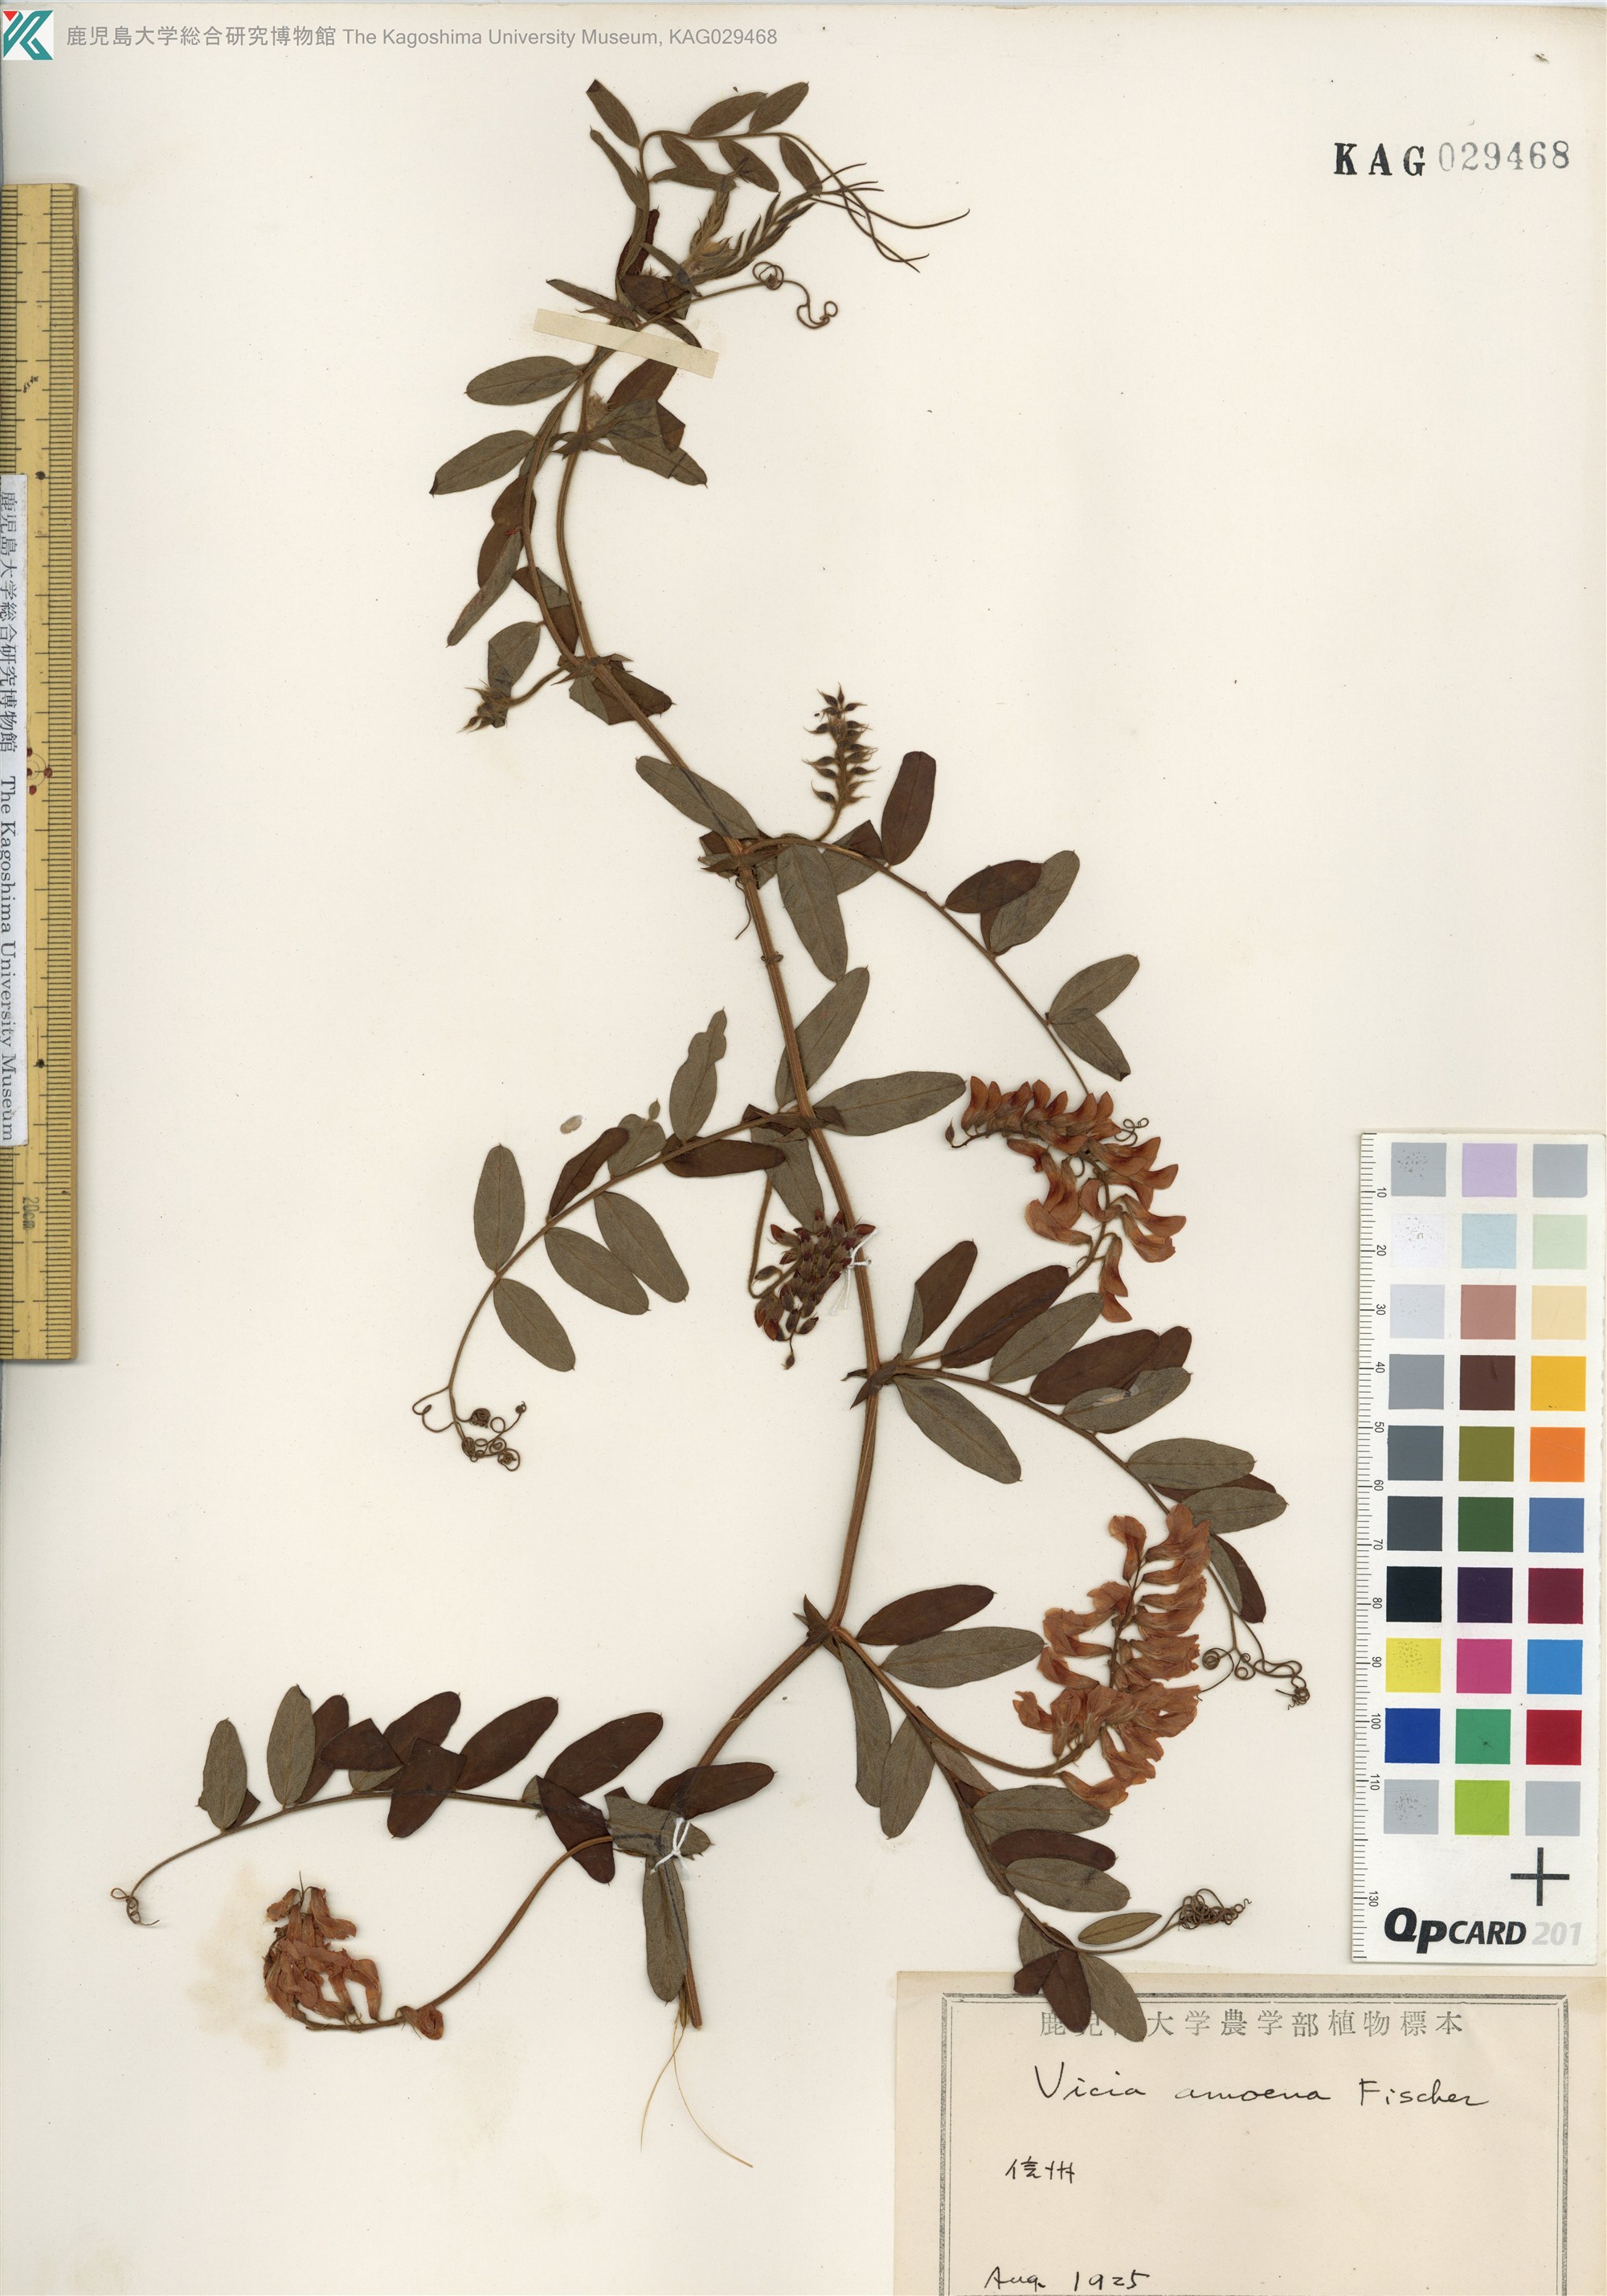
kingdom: Plantae
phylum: Tracheophyta
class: Magnoliopsida
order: Fabales
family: Fabaceae
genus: Vicia
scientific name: Vicia amoena
